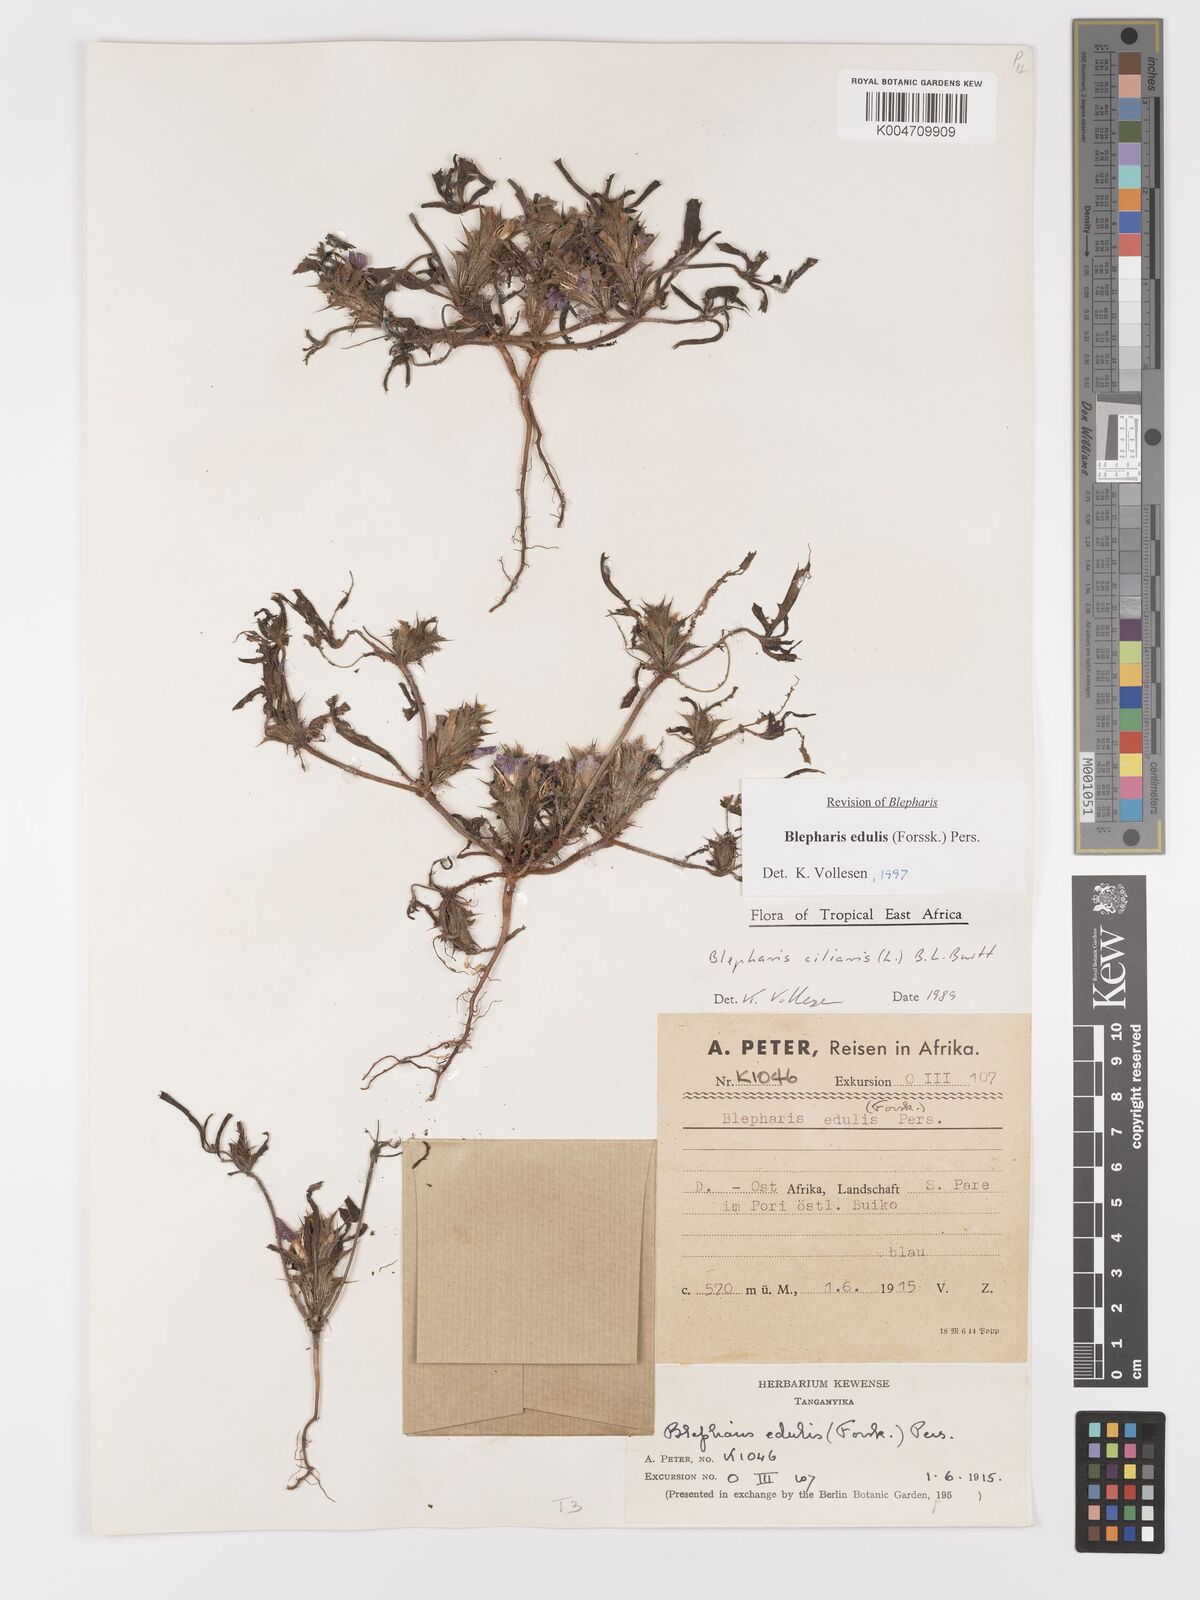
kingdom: Plantae
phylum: Tracheophyta
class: Magnoliopsida
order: Lamiales
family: Acanthaceae
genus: Blepharis
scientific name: Blepharis edulis
